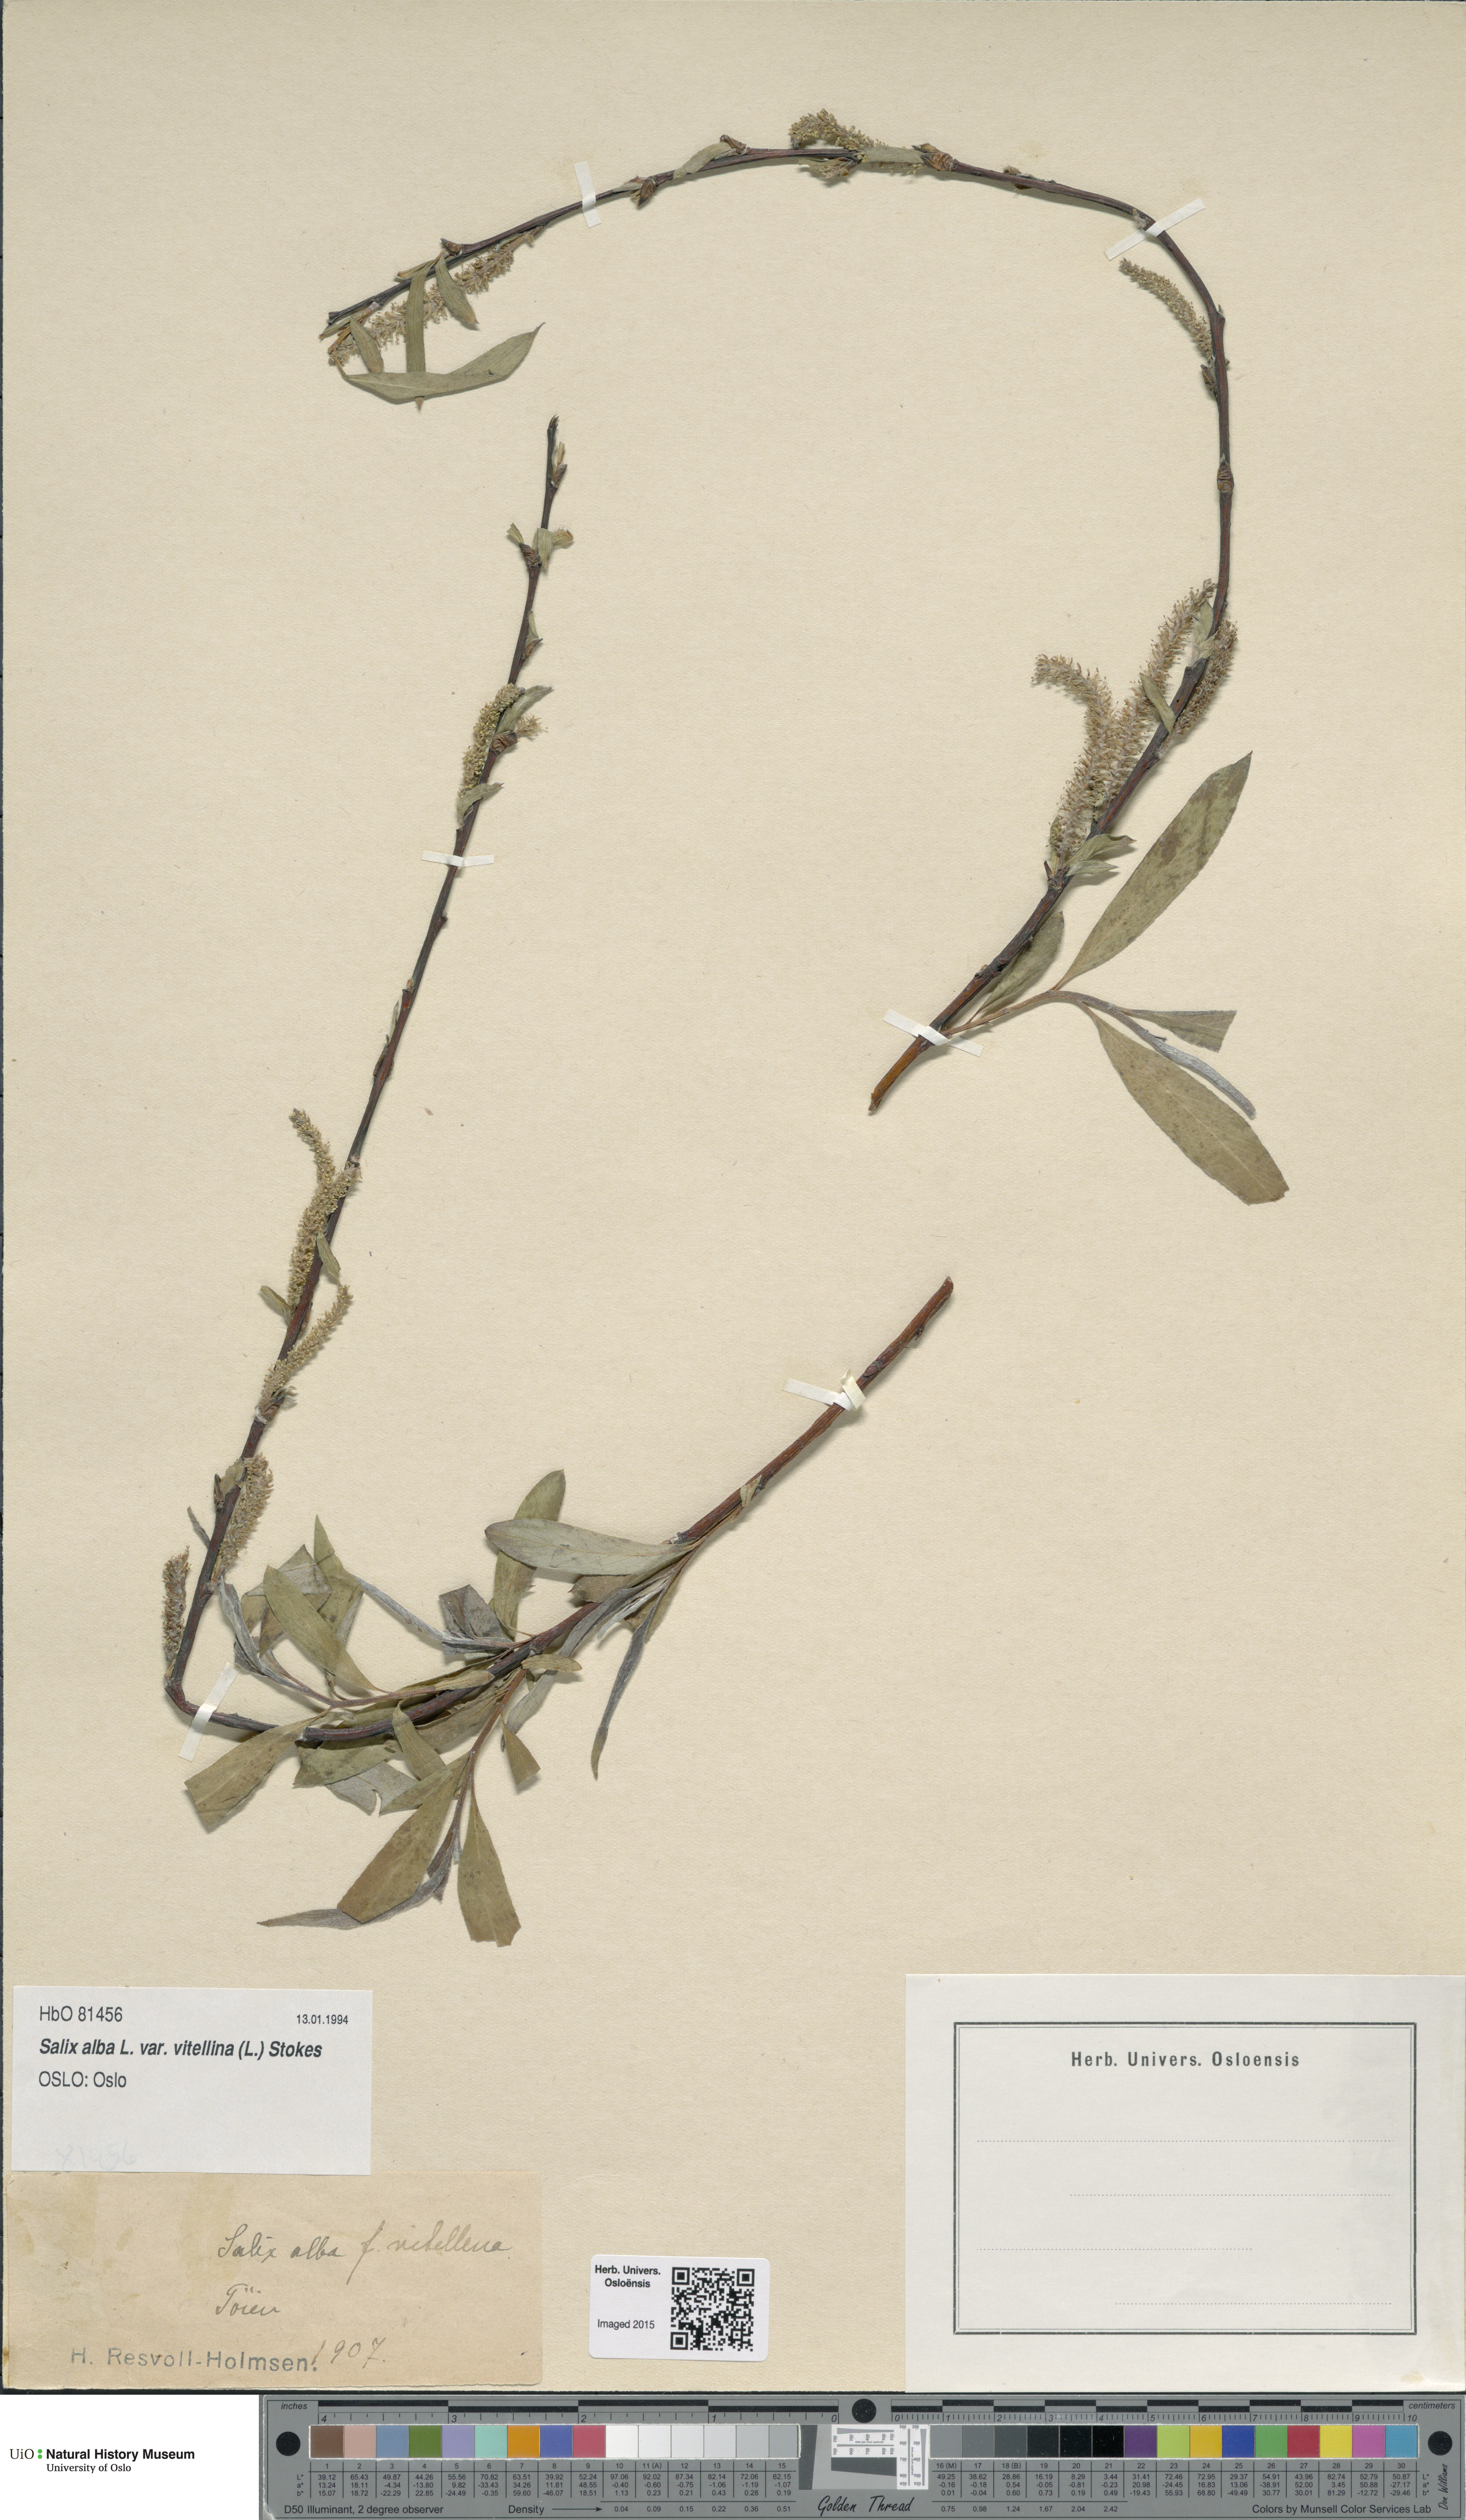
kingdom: Plantae
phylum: Tracheophyta
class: Magnoliopsida
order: Malpighiales
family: Salicaceae
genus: Salix
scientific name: Salix alba
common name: White willow
